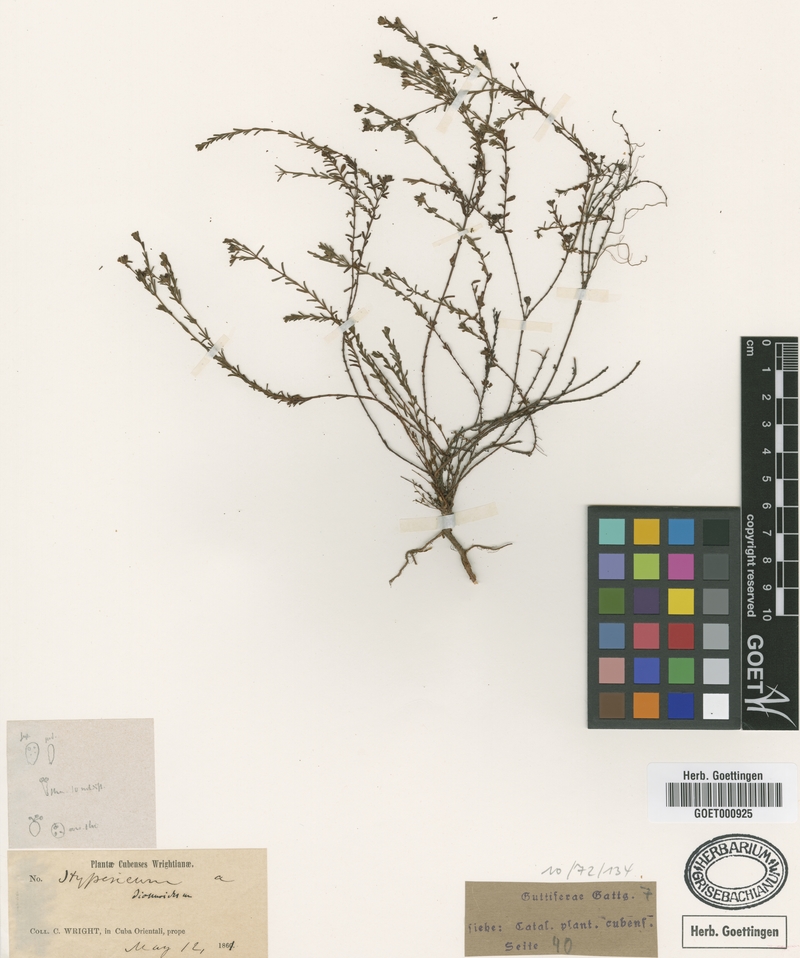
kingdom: Plantae
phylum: Tracheophyta
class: Magnoliopsida
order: Malpighiales
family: Hypericaceae
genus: Hypericum
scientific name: Hypericum diosmoides
